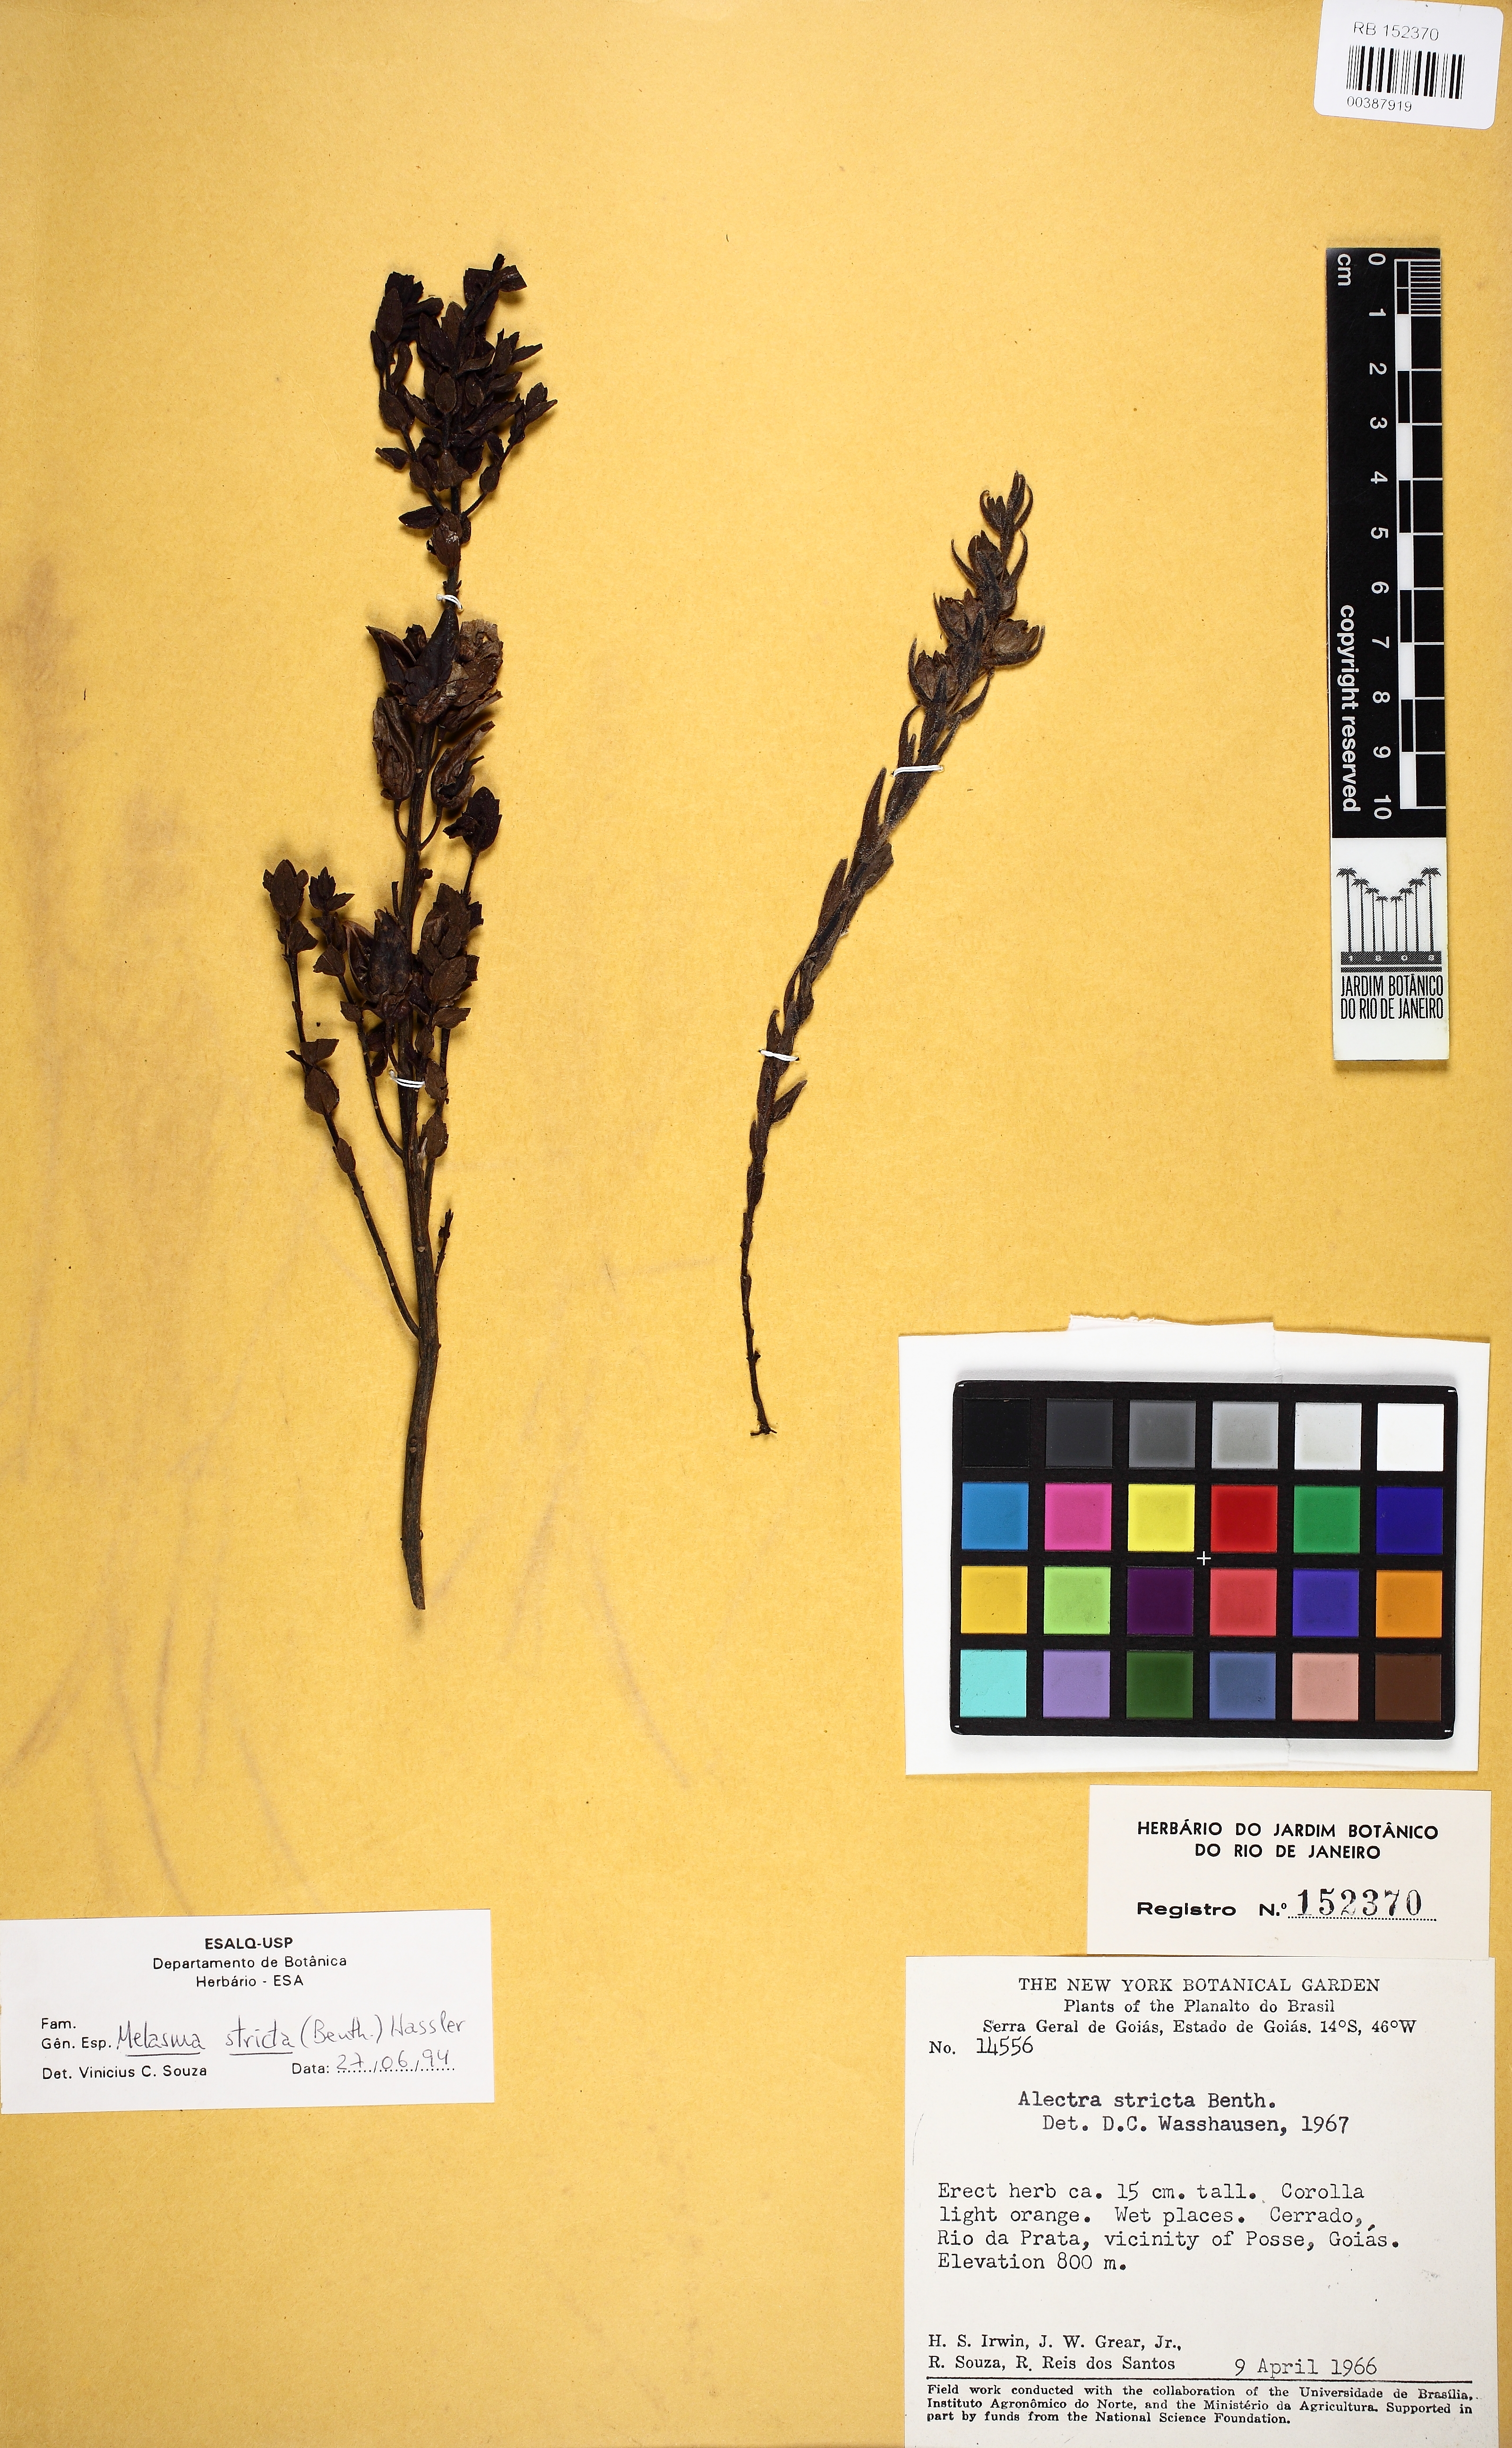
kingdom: Plantae
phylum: Tracheophyta
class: Magnoliopsida
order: Lamiales
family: Orobanchaceae
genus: Melasma
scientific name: Melasma strictum
